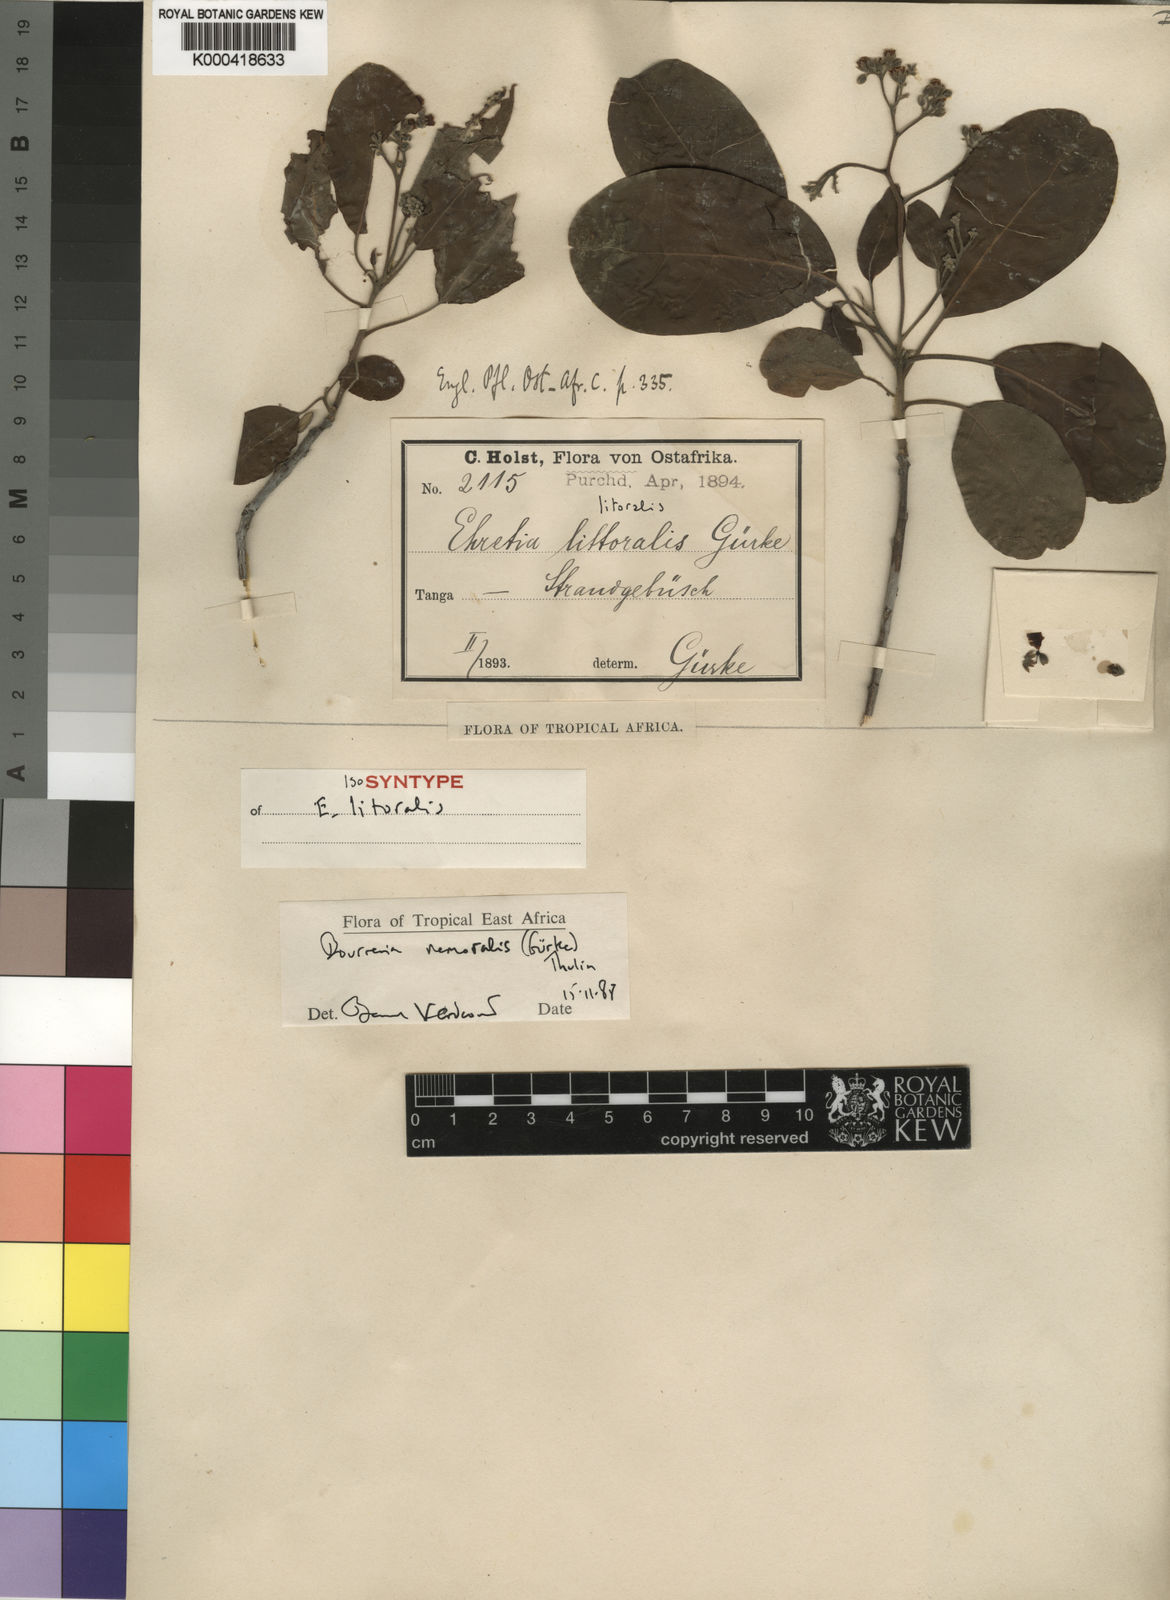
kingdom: Plantae
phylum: Tracheophyta
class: Magnoliopsida
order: Boraginales
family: Ehretiaceae
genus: Bourreria
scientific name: Bourreria
